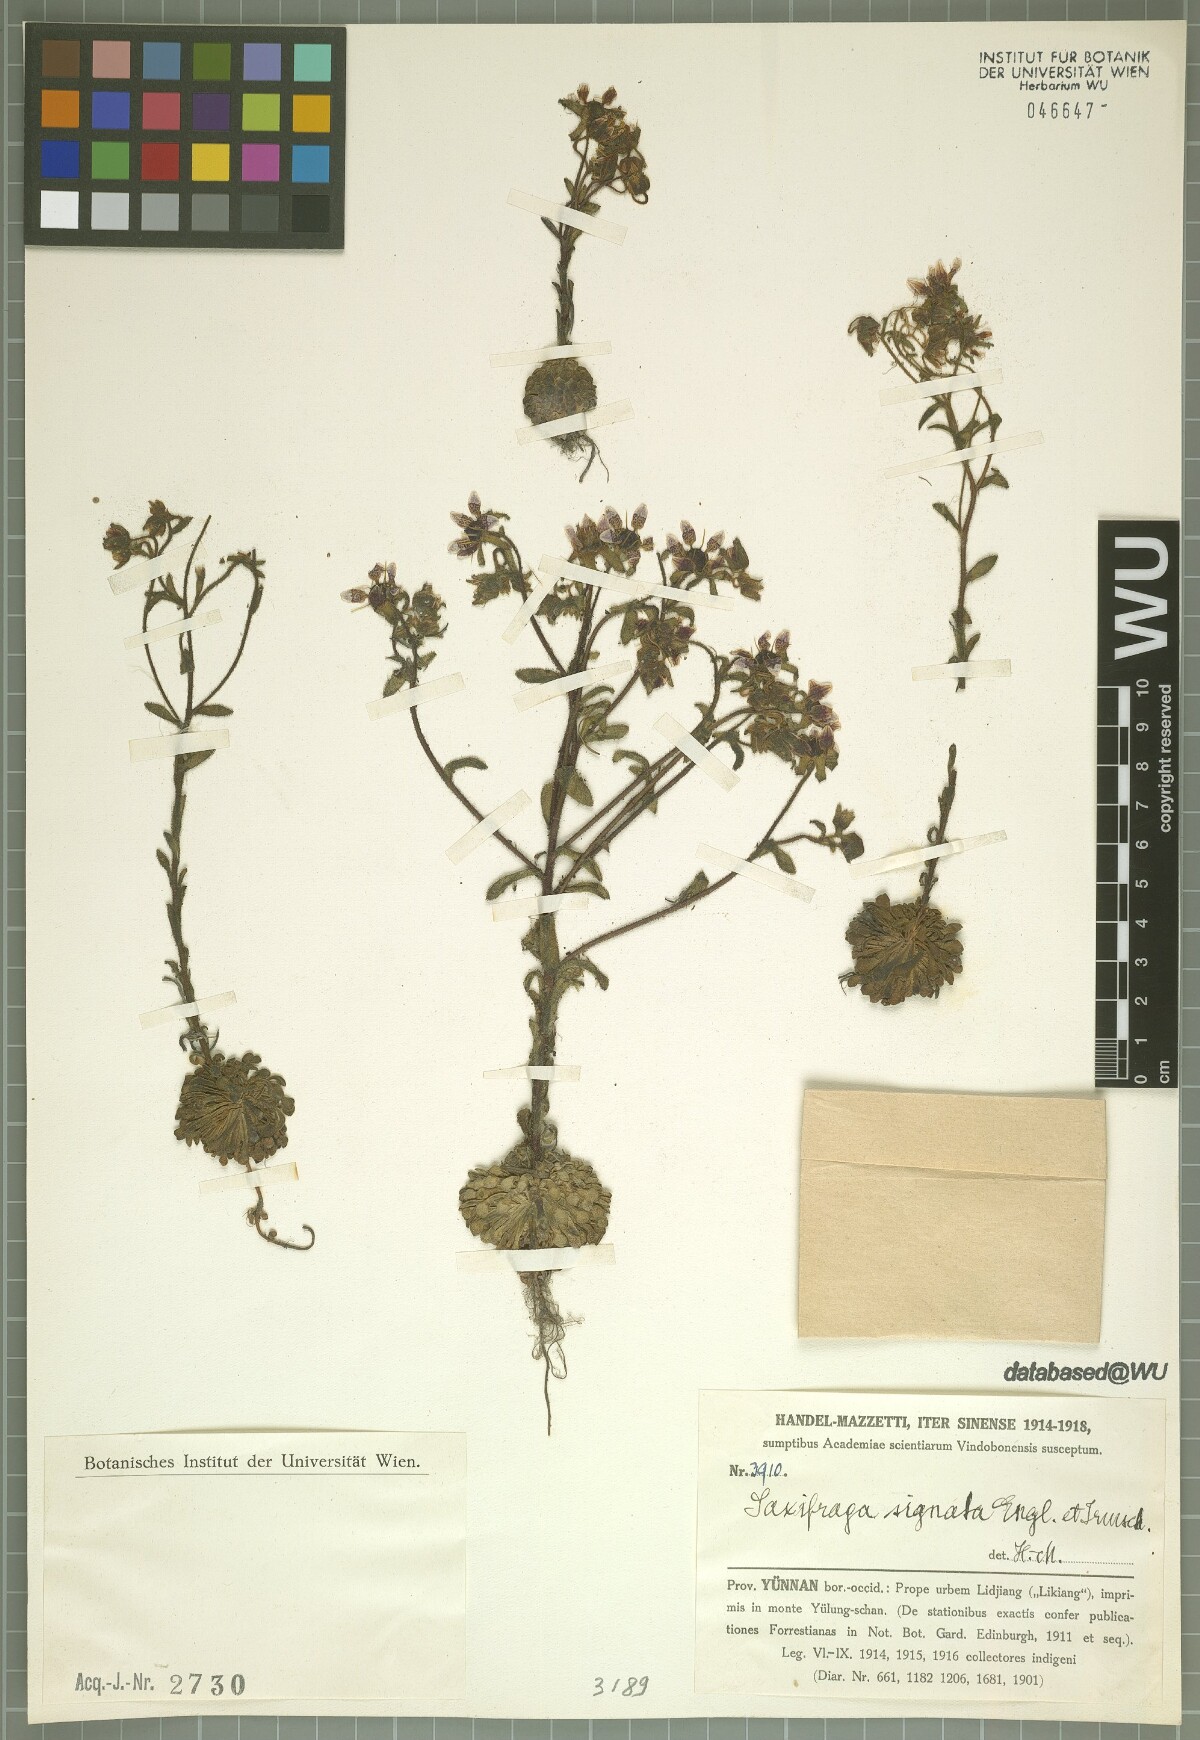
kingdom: Plantae
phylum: Tracheophyta
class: Magnoliopsida
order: Saxifragales
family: Saxifragaceae
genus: Saxifraga
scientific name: Saxifraga signata
